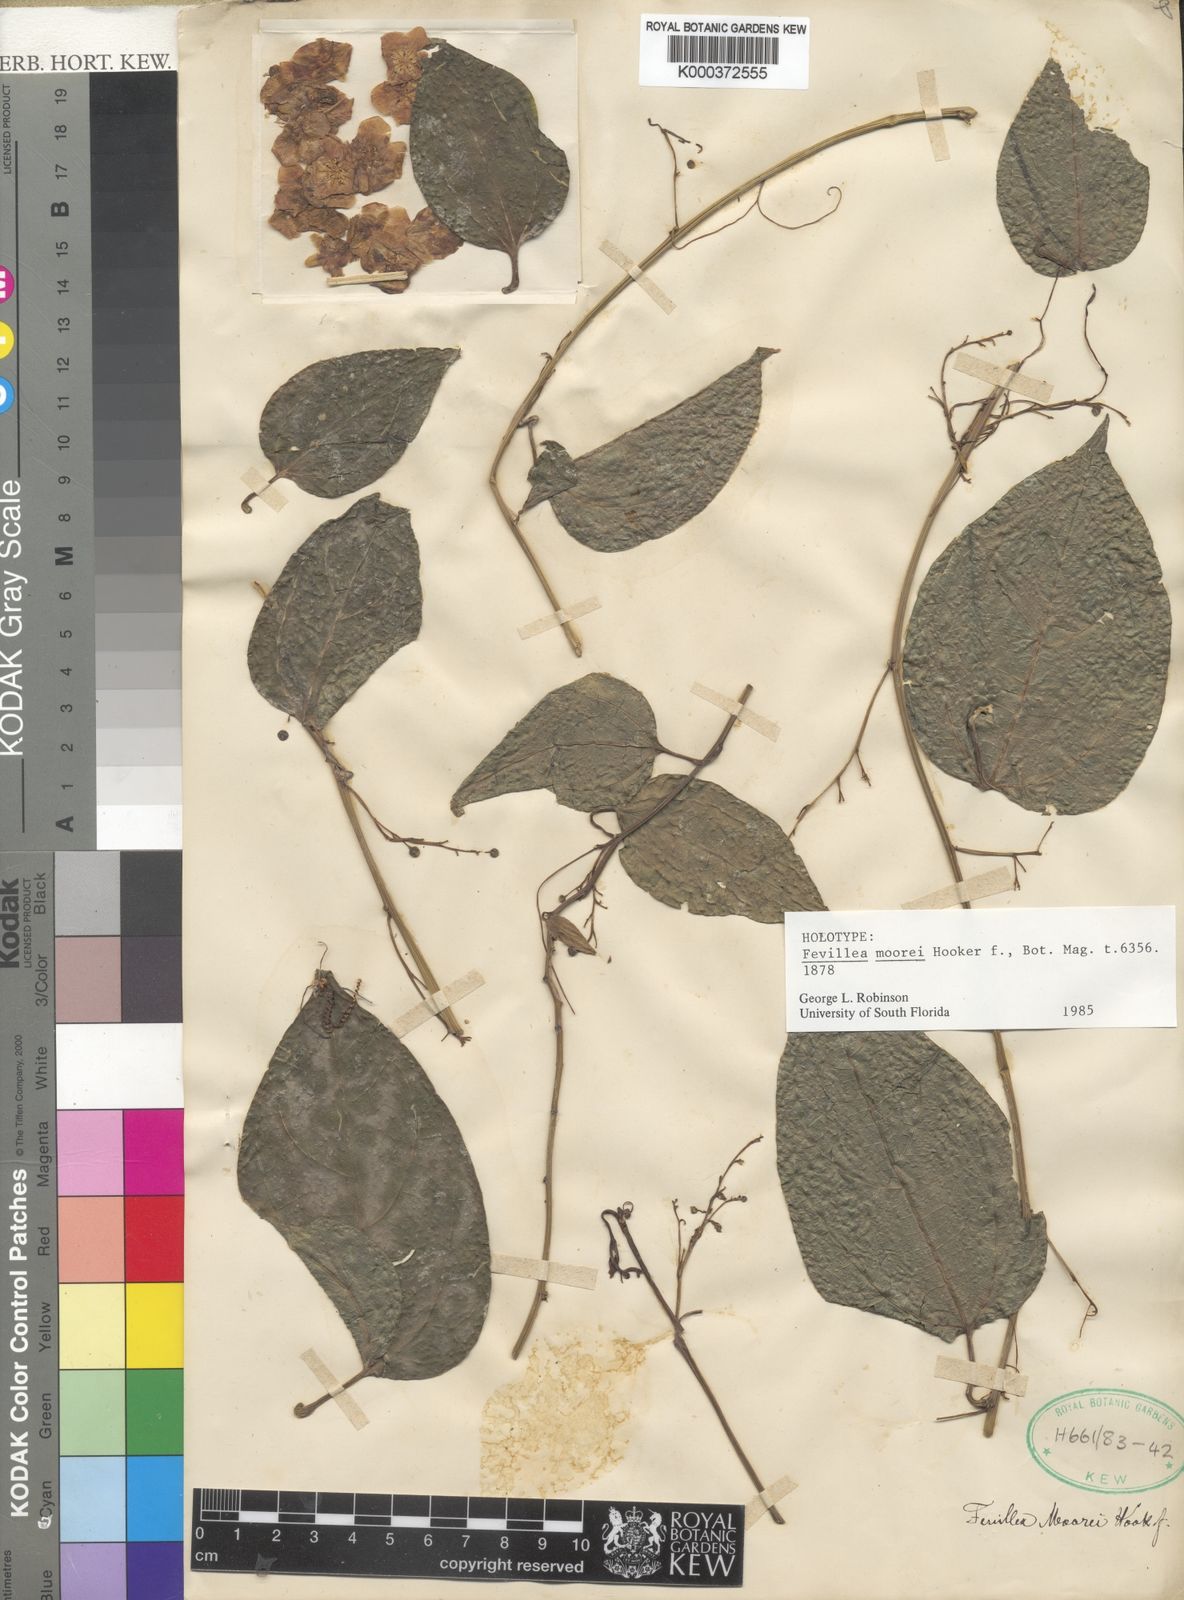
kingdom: Plantae
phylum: Tracheophyta
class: Magnoliopsida
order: Cucurbitales
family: Cucurbitaceae
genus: Anisosperma
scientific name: Anisosperma passiflora
